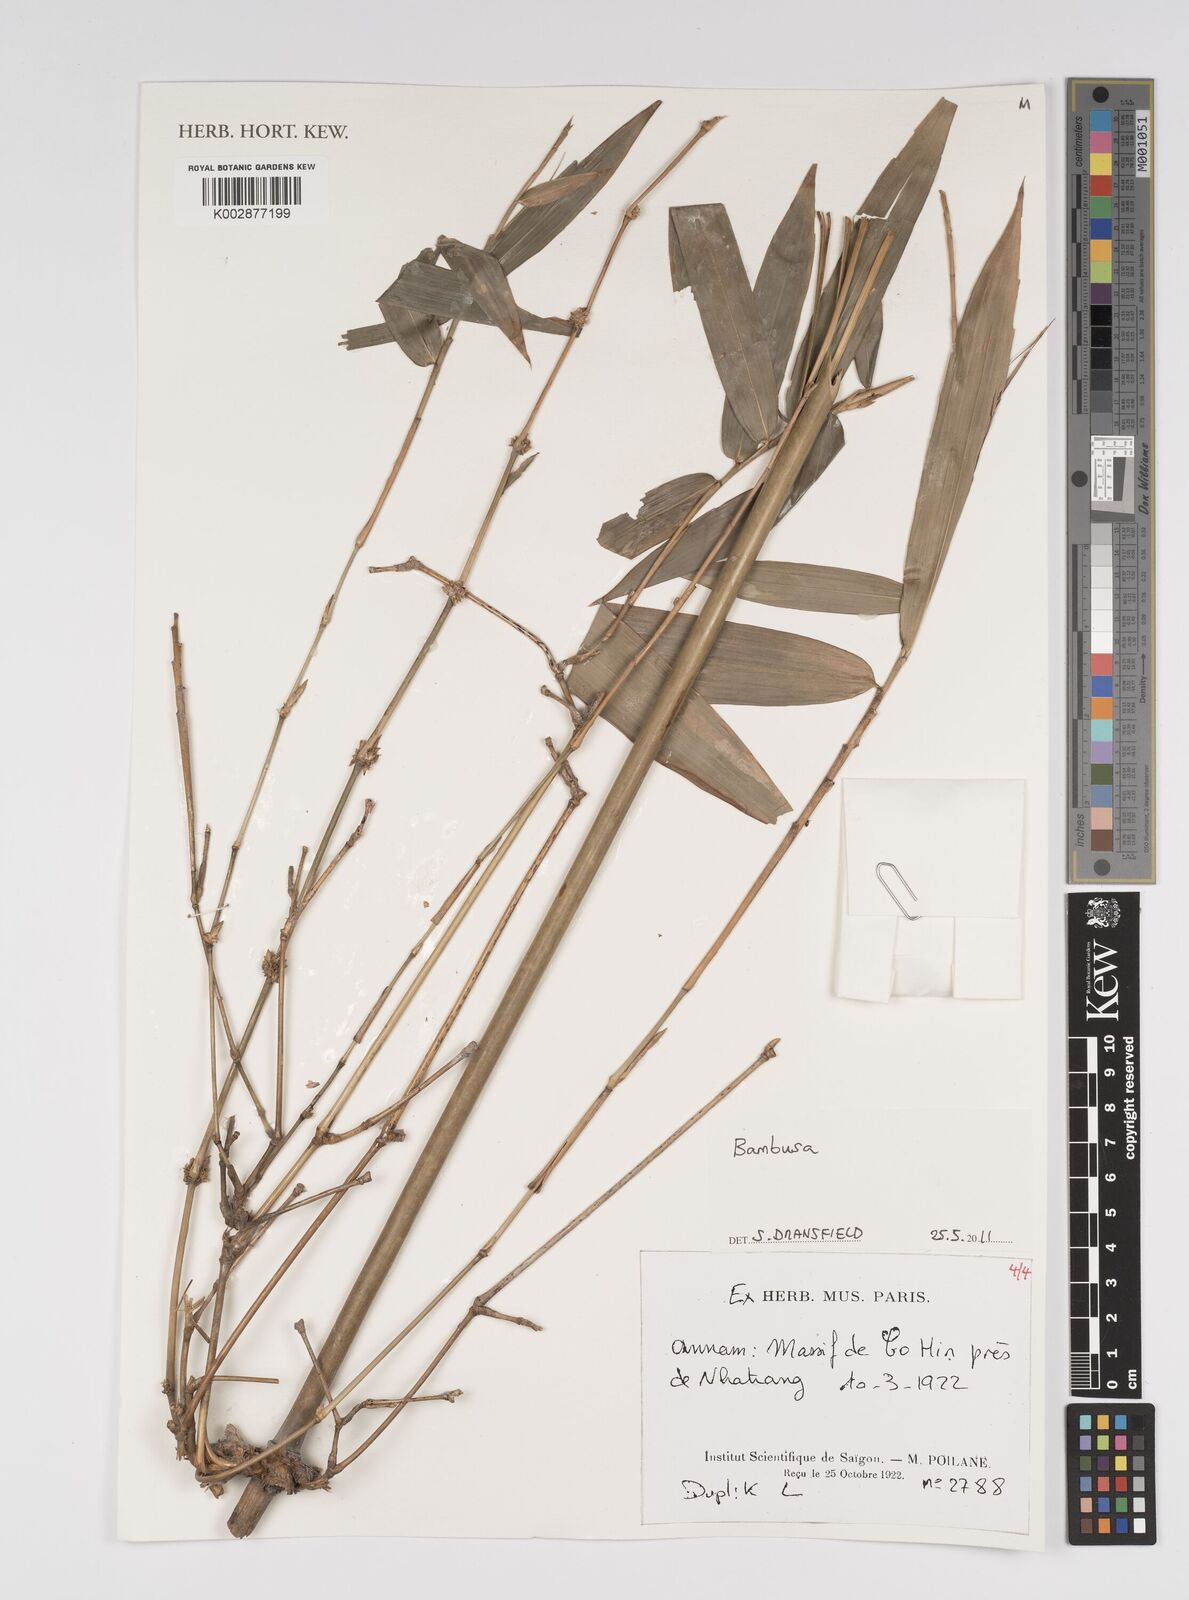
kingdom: Plantae
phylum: Tracheophyta
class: Liliopsida
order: Poales
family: Poaceae
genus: Bambusa
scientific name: Bambusa
